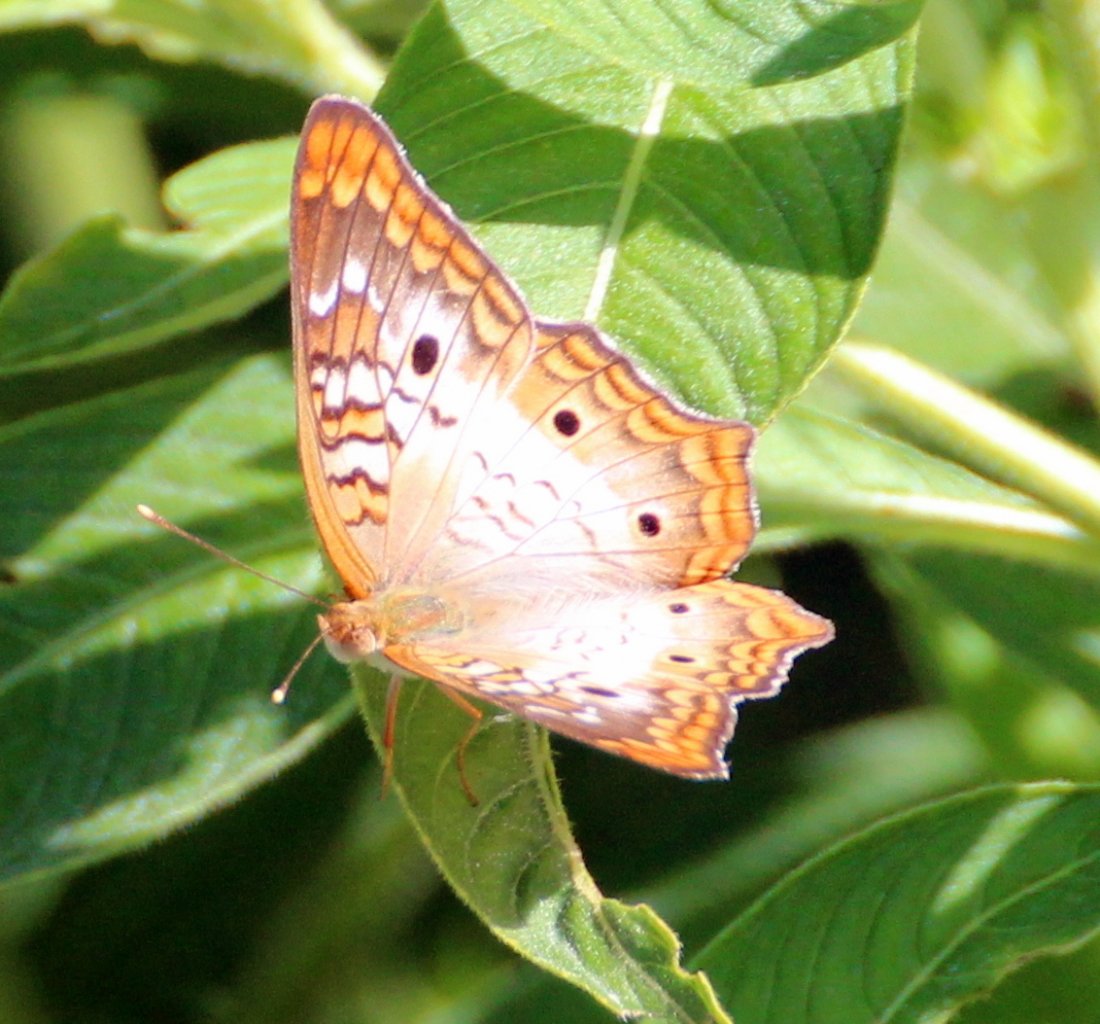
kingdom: Animalia
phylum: Arthropoda
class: Insecta
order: Lepidoptera
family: Nymphalidae
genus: Anartia
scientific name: Anartia jatrophae
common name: White Peacock
